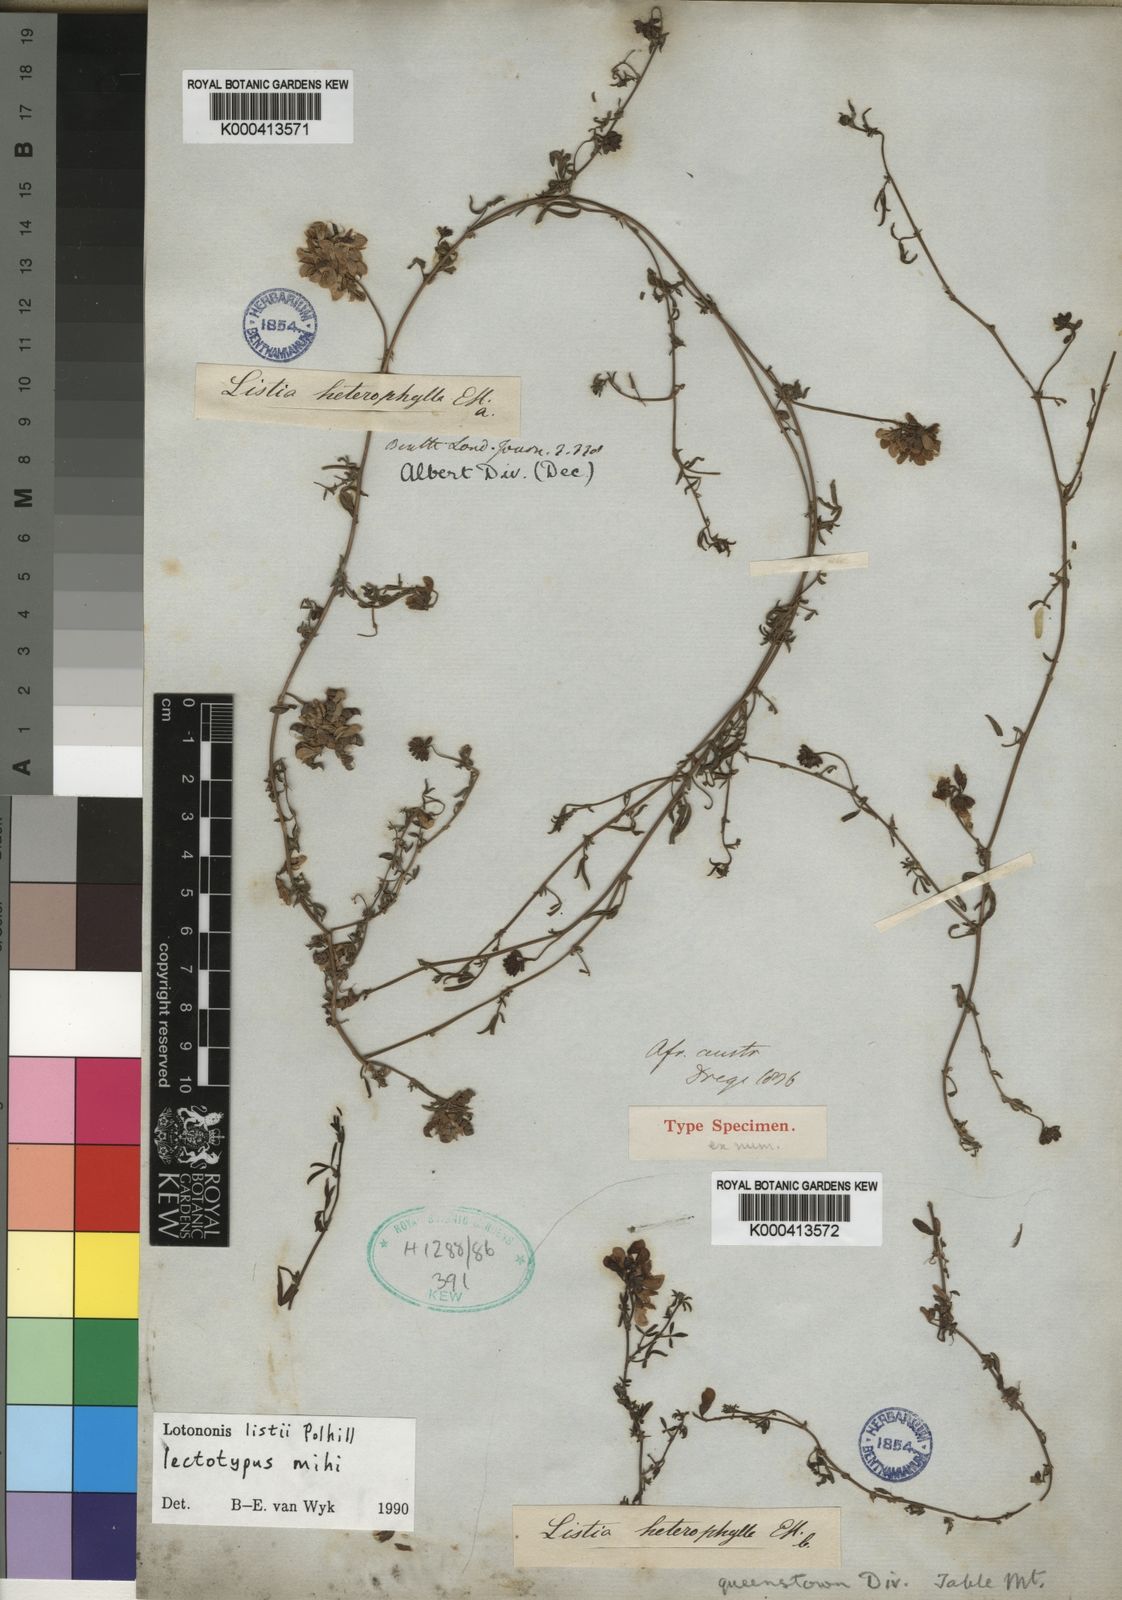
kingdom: Plantae
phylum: Tracheophyta
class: Magnoliopsida
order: Fabales
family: Fabaceae
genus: Lotononis
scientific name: Lotononis
